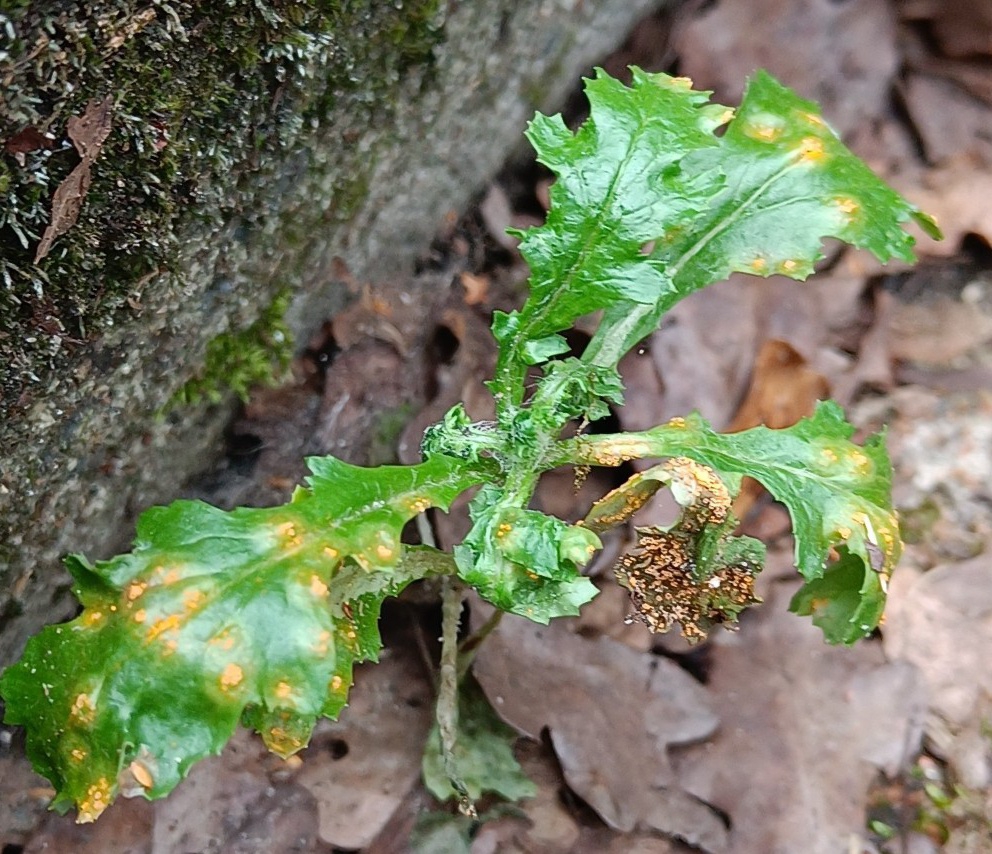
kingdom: Plantae
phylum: Tracheophyta
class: Magnoliopsida
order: Asterales
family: Asteraceae
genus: Senecio
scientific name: Senecio vulgaris
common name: Almindelig brandbæger
